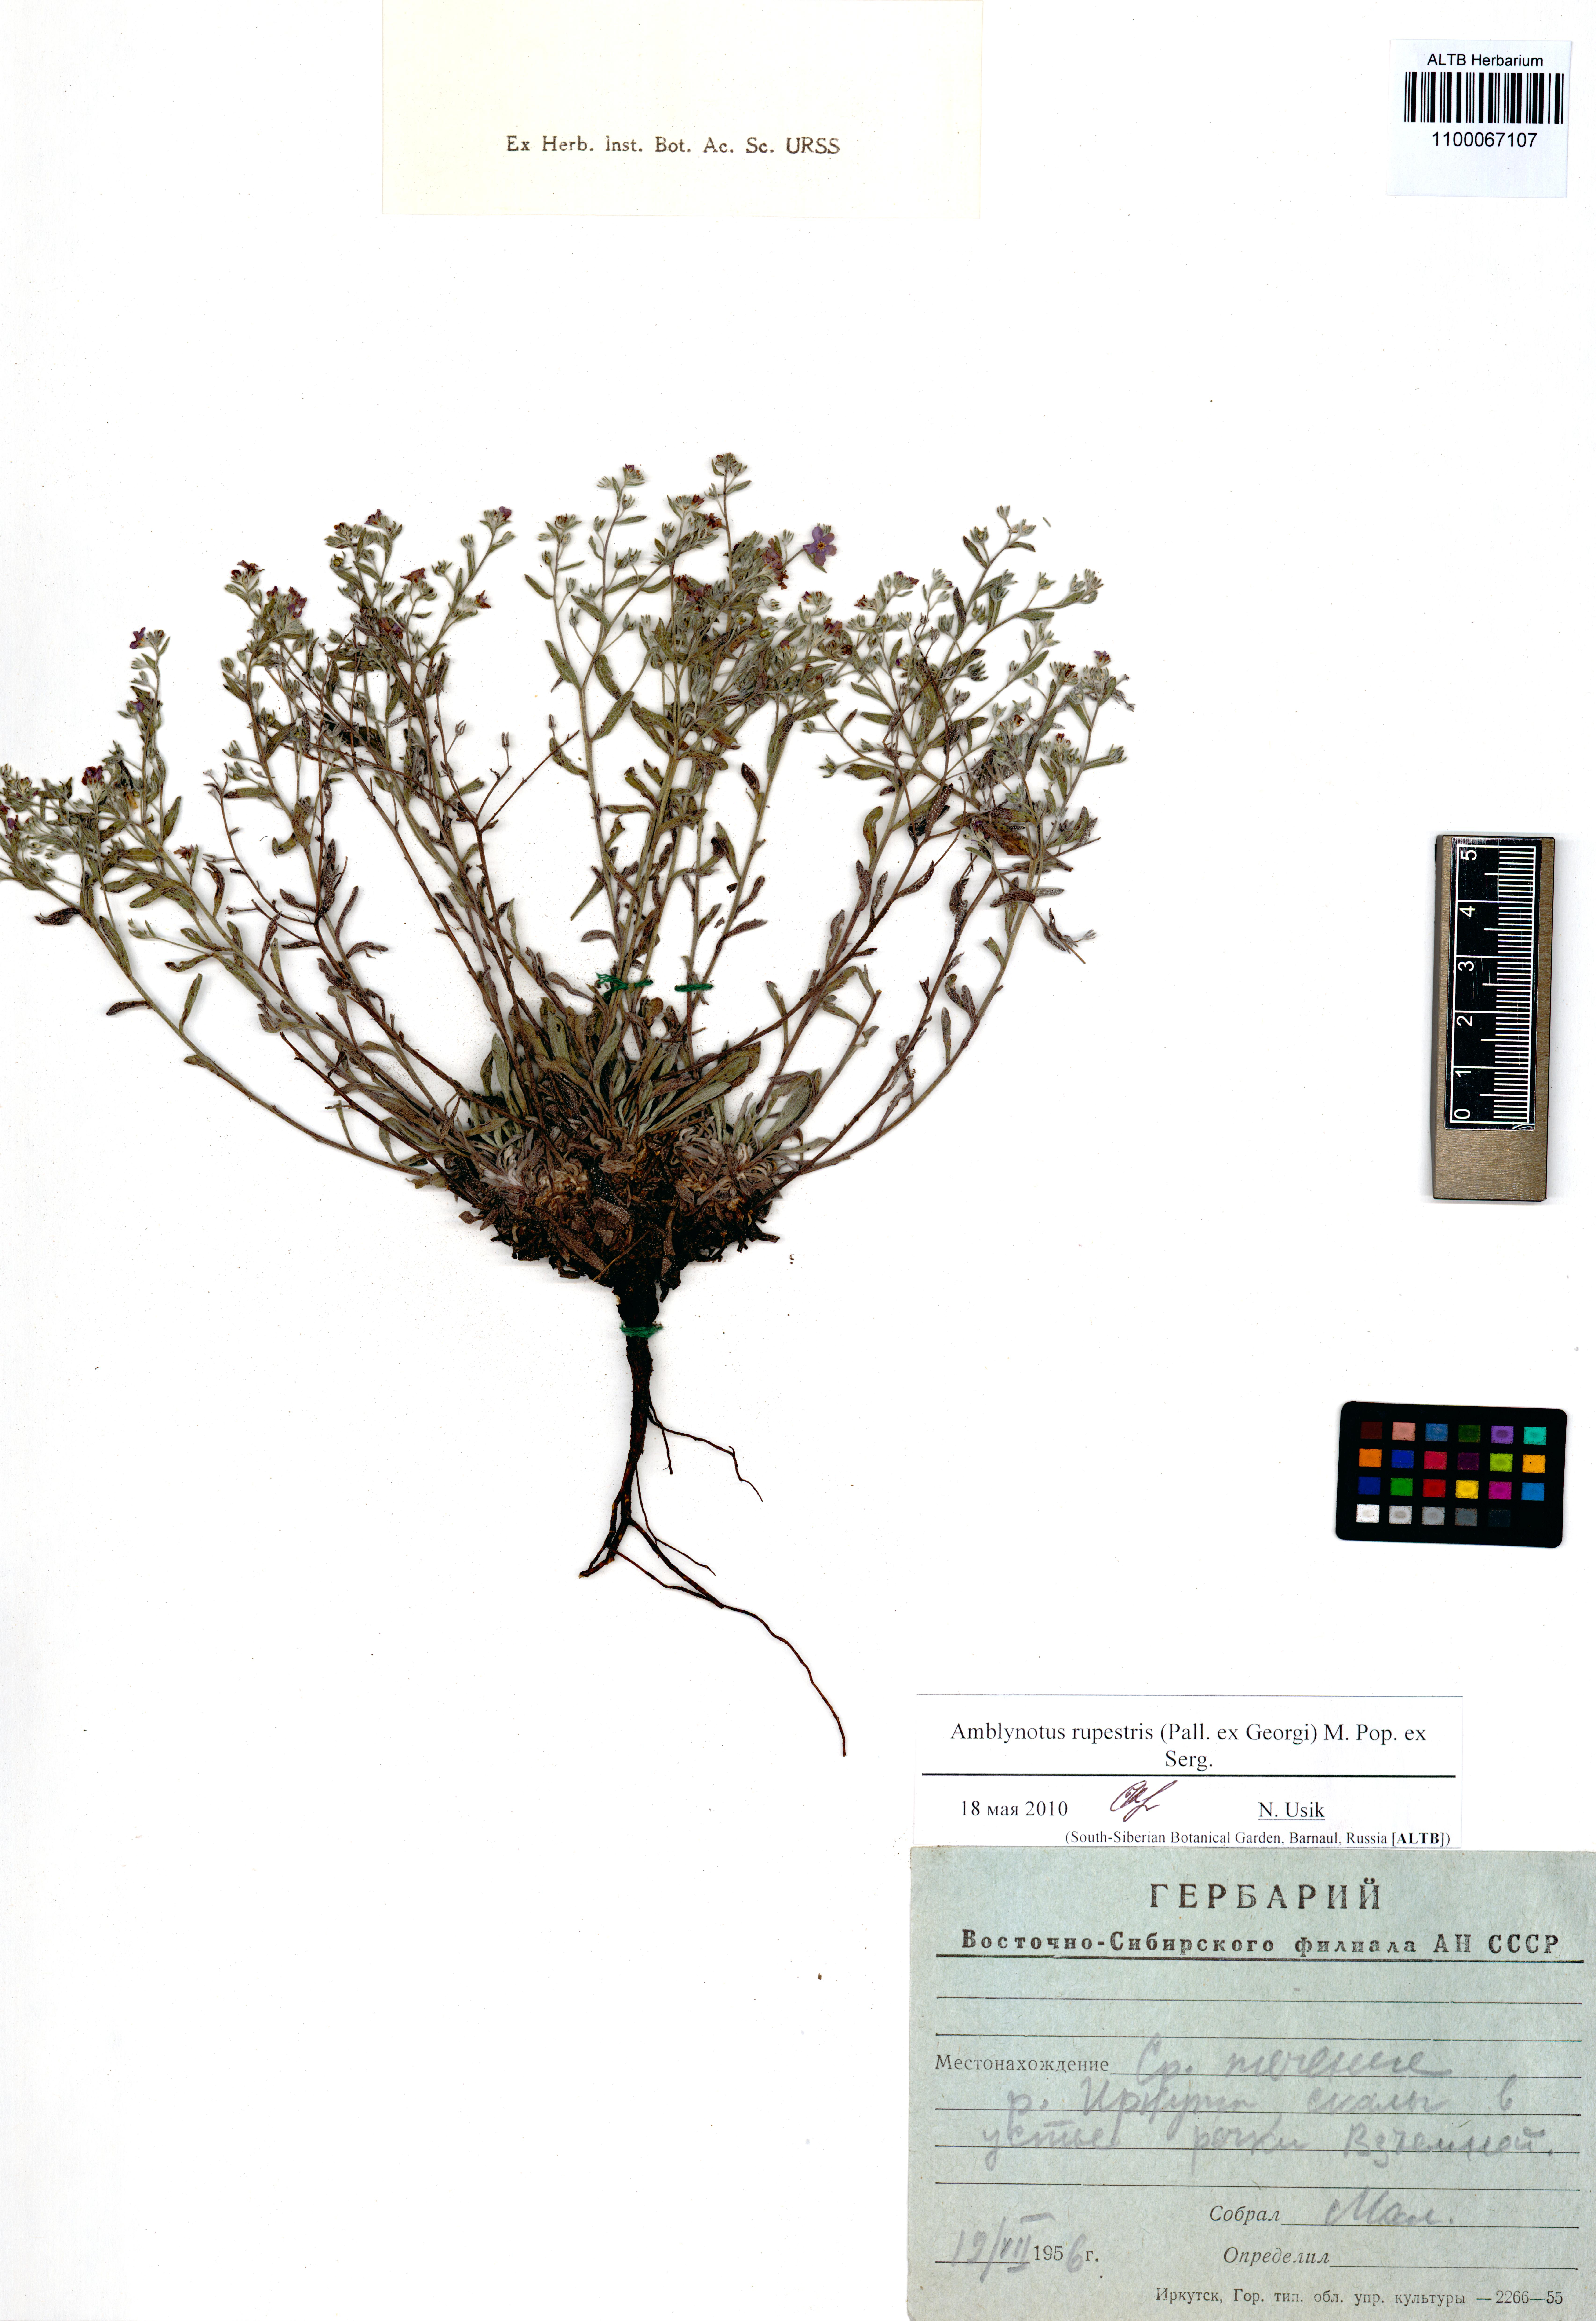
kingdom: Plantae
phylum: Tracheophyta
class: Magnoliopsida
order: Boraginales
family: Boraginaceae
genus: Eritrichium
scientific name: Eritrichium rupestre
